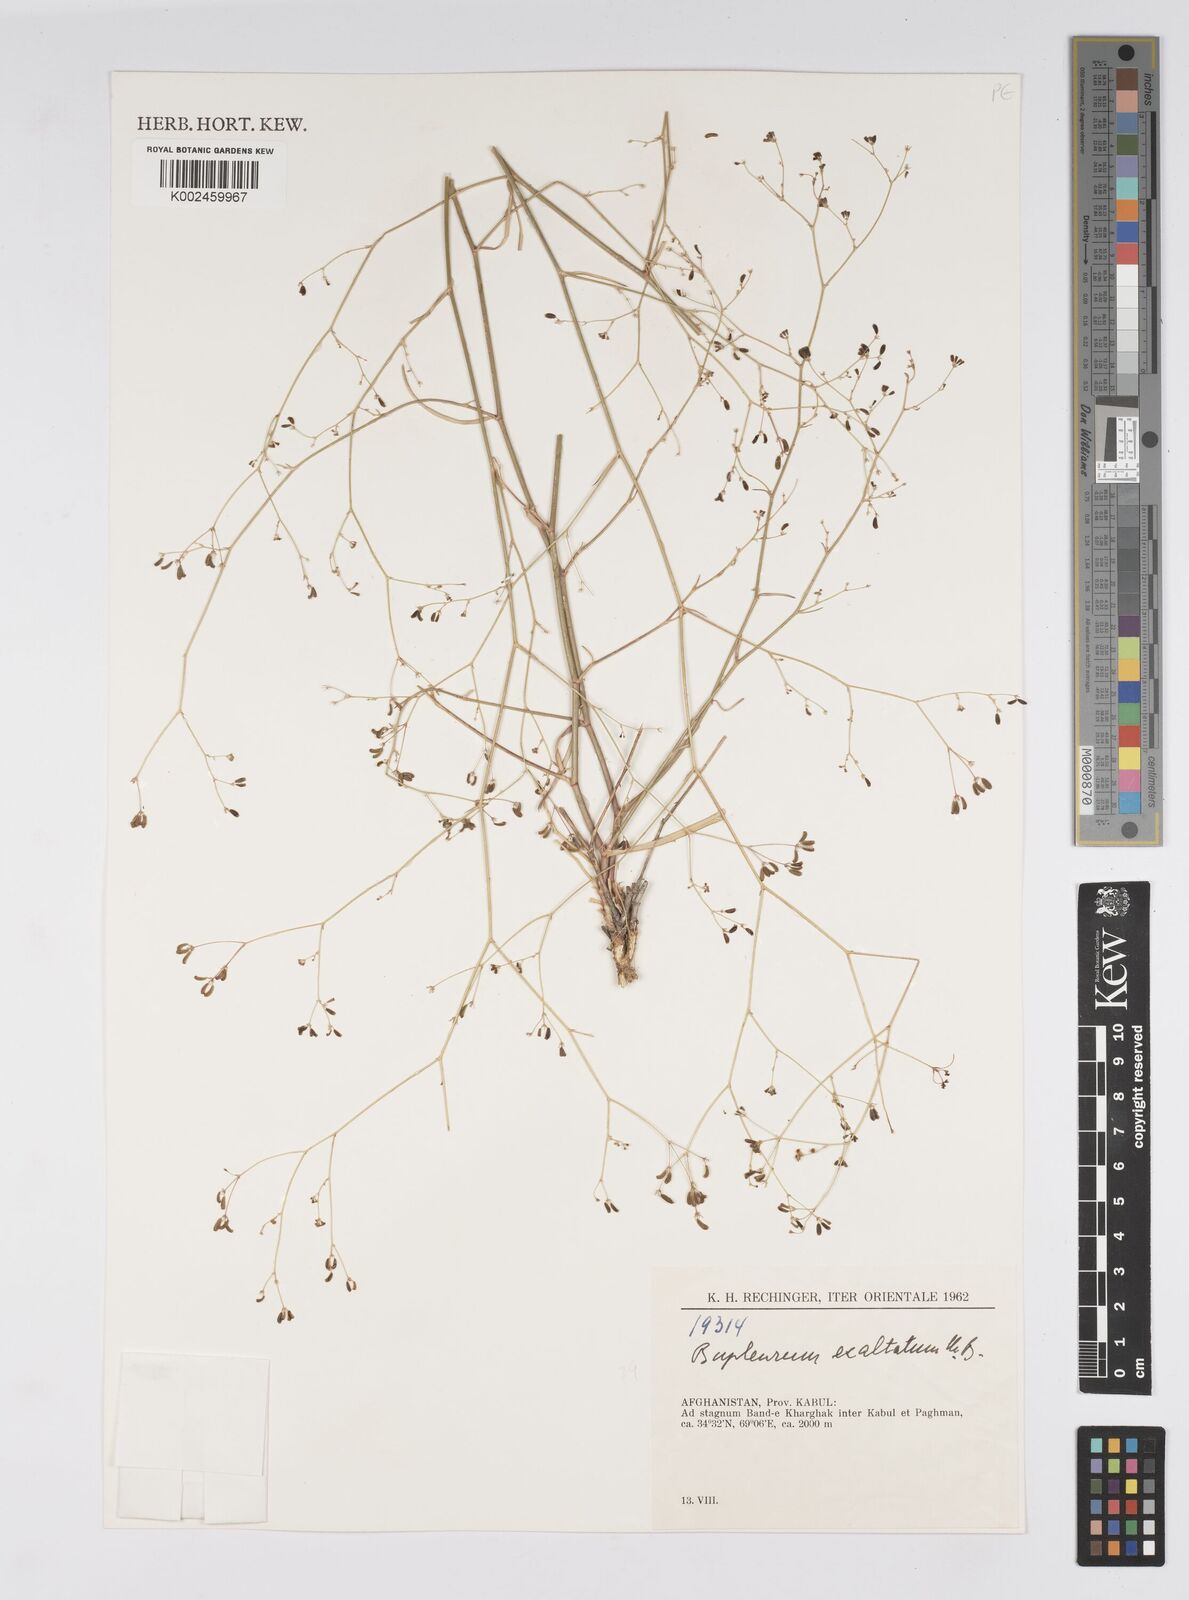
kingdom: Plantae
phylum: Tracheophyta
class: Magnoliopsida
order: Apiales
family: Apiaceae
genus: Bupleurum
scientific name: Bupleurum falcatum
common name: Sickle-leaved hare's-ear
